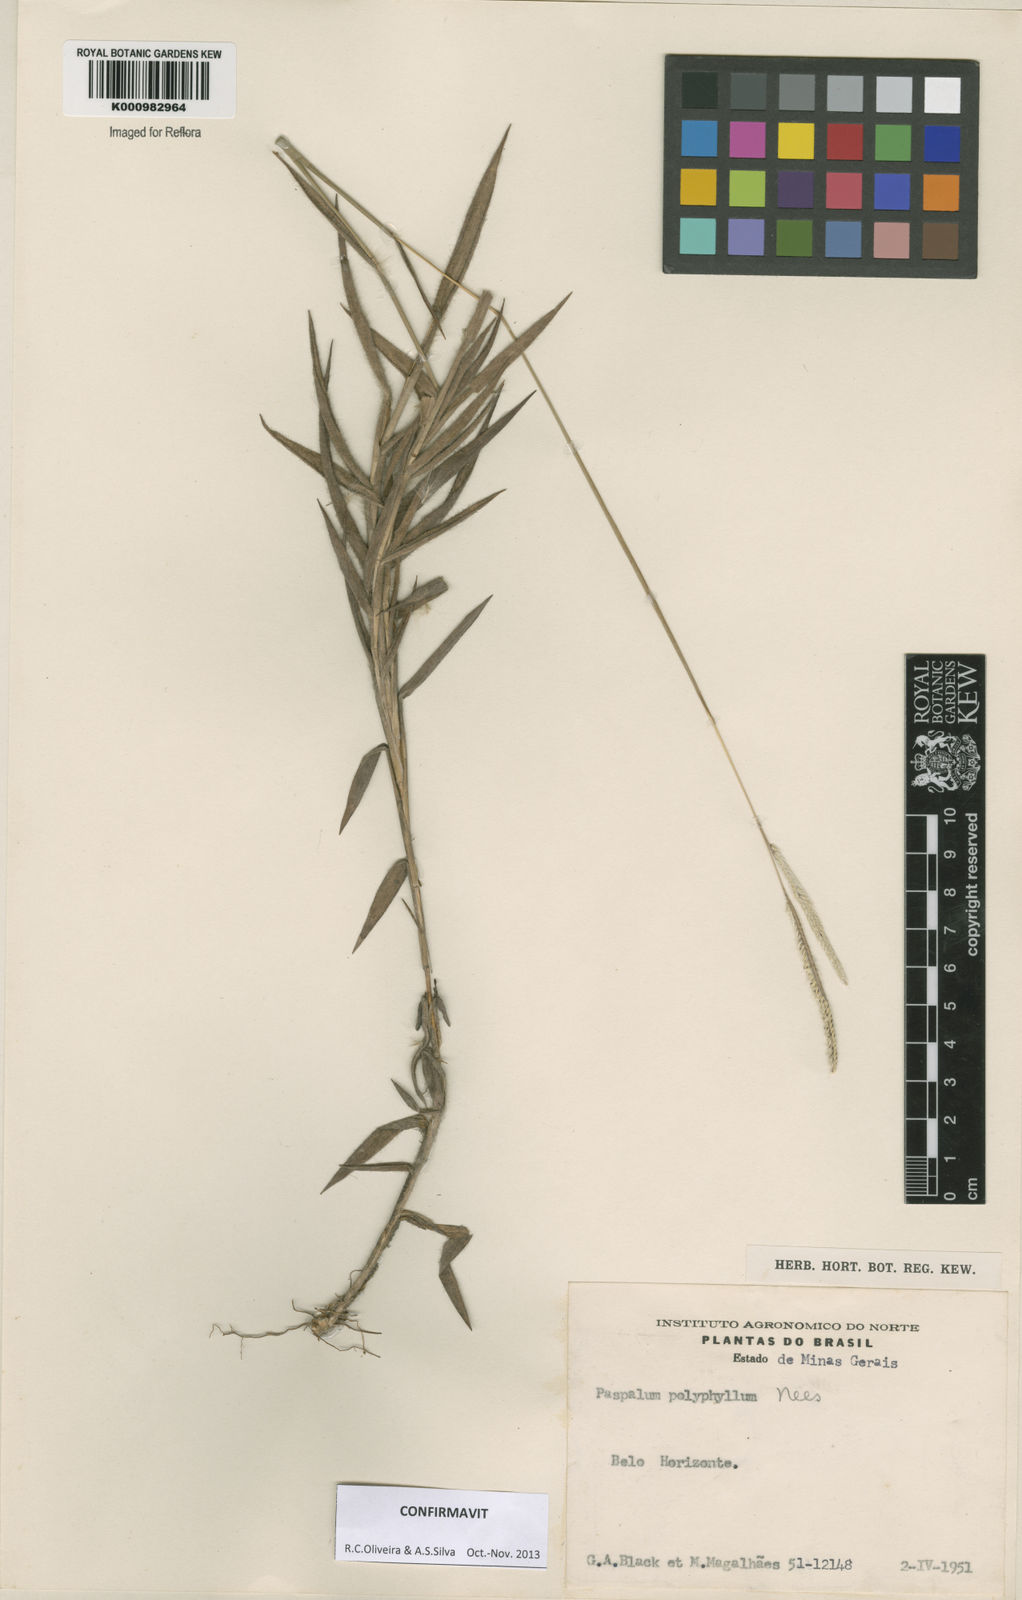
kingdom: Plantae
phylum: Tracheophyta
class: Liliopsida
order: Poales
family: Poaceae
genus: Paspalum
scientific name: Paspalum
